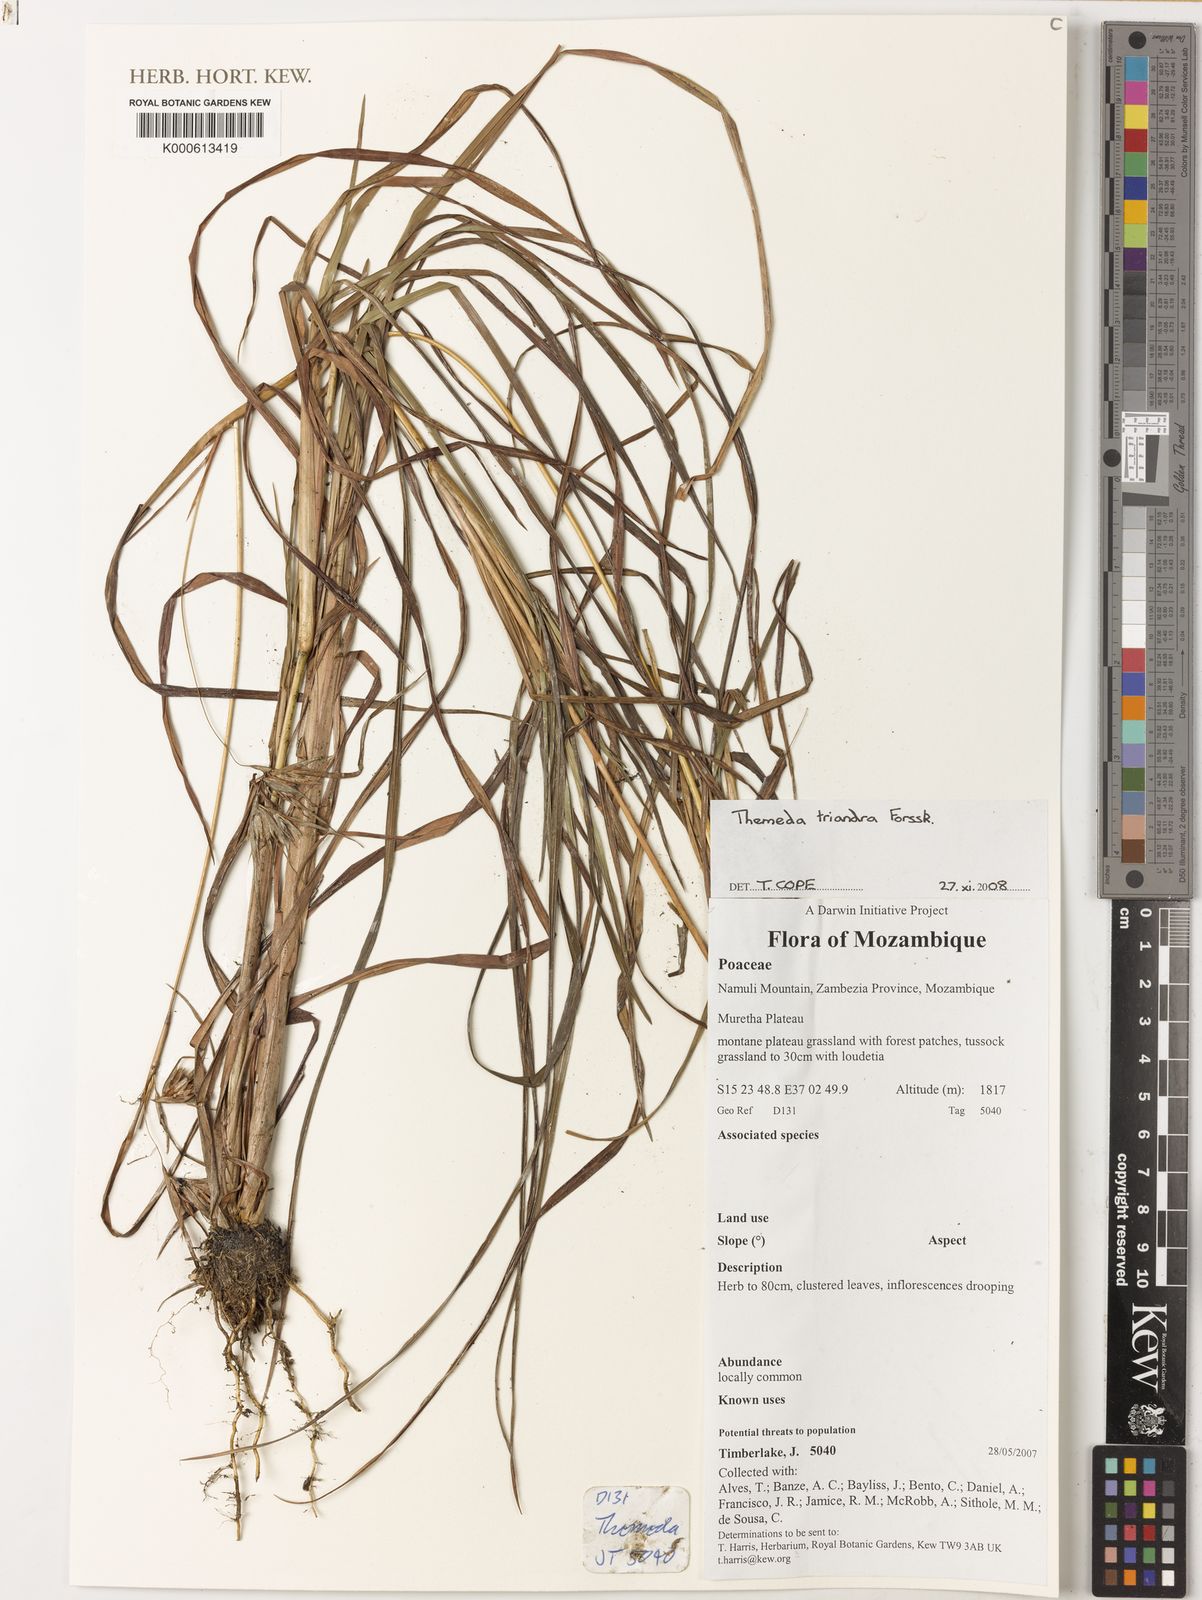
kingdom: Plantae
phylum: Tracheophyta
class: Liliopsida
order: Poales
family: Poaceae
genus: Themeda
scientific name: Themeda triandra
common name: Kangaroo grass
